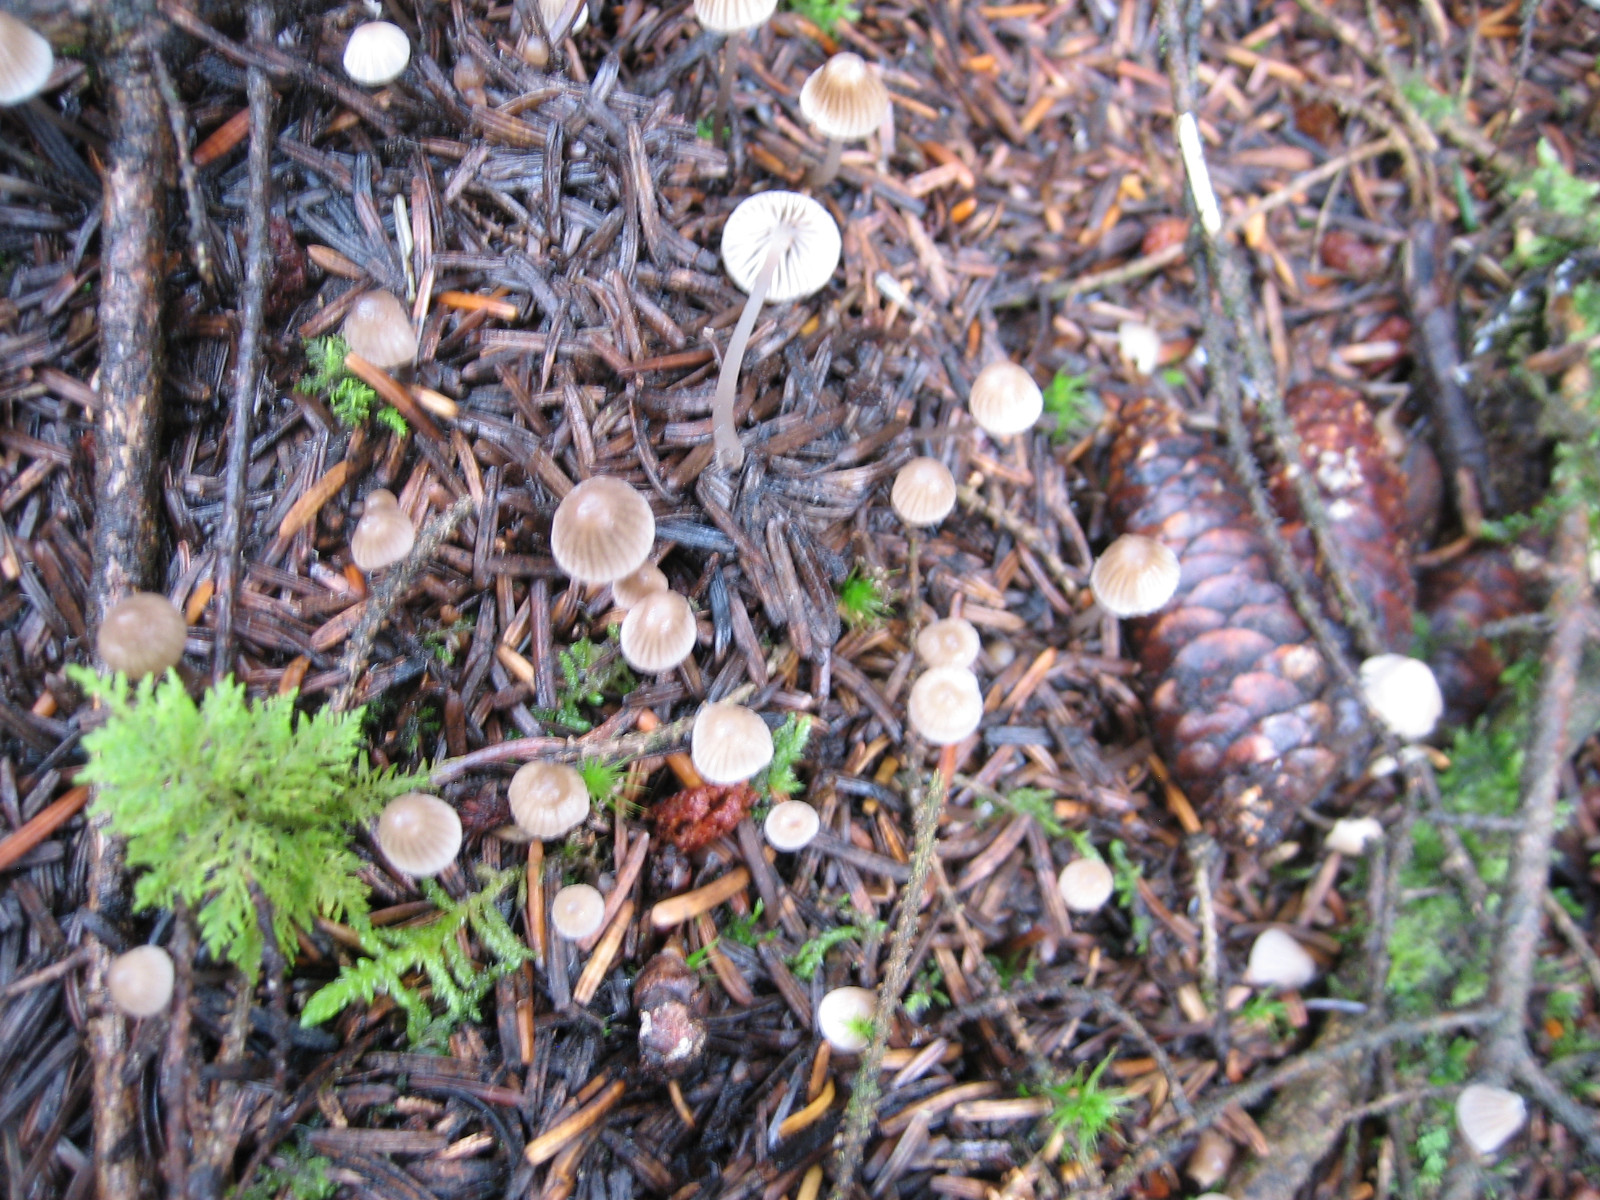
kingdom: Fungi
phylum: Basidiomycota
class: Agaricomycetes
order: Agaricales
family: Mycenaceae
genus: Mycena
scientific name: Mycena leptocephala
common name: klor-huesvamp
